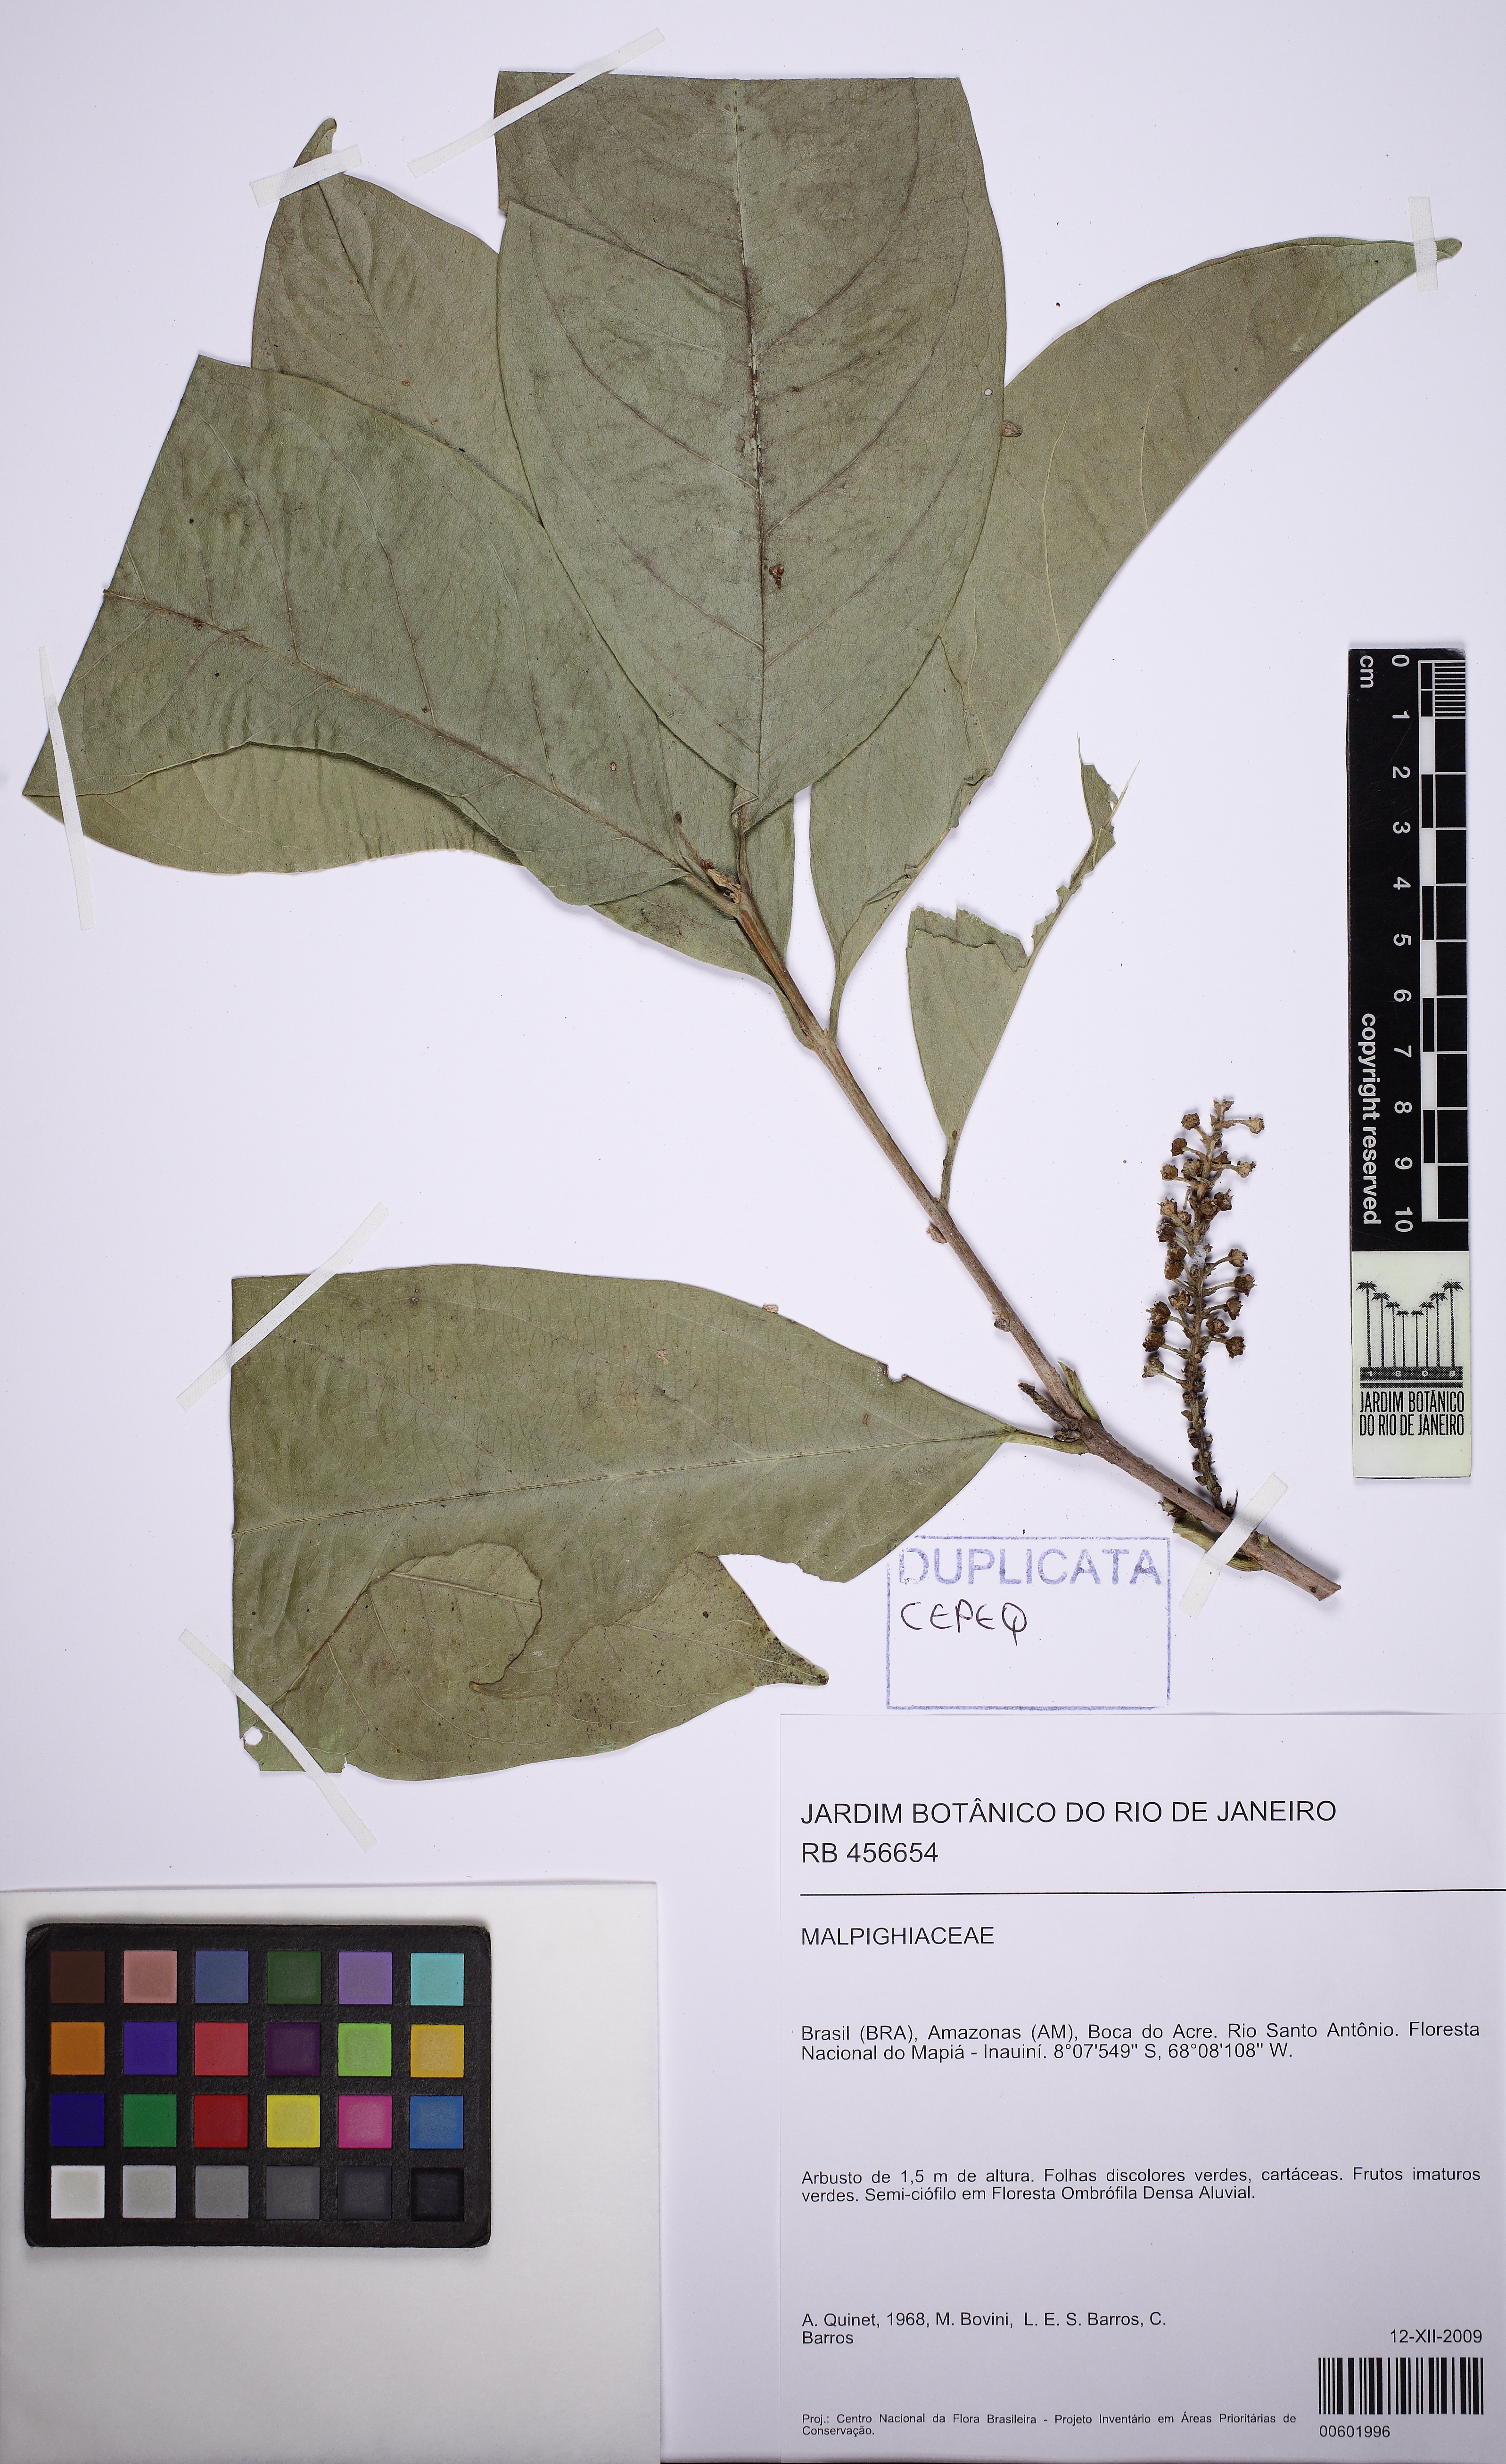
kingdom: Plantae
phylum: Tracheophyta
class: Magnoliopsida
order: Malpighiales
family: Malpighiaceae
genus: Bunchosia
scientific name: Bunchosia
